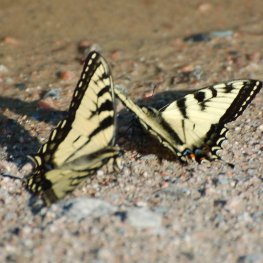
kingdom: Animalia
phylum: Arthropoda
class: Insecta
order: Lepidoptera
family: Papilionidae
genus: Pterourus
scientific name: Pterourus canadensis
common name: Canadian Tiger Swallowtail
